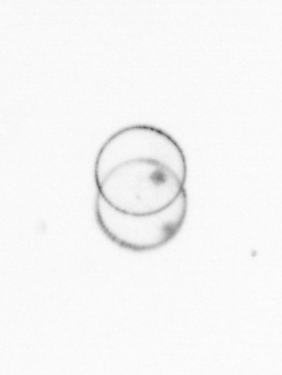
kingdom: Chromista
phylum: Myzozoa
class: Dinophyceae
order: Noctilucales
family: Noctilucaceae
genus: Noctiluca
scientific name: Noctiluca scintillans
